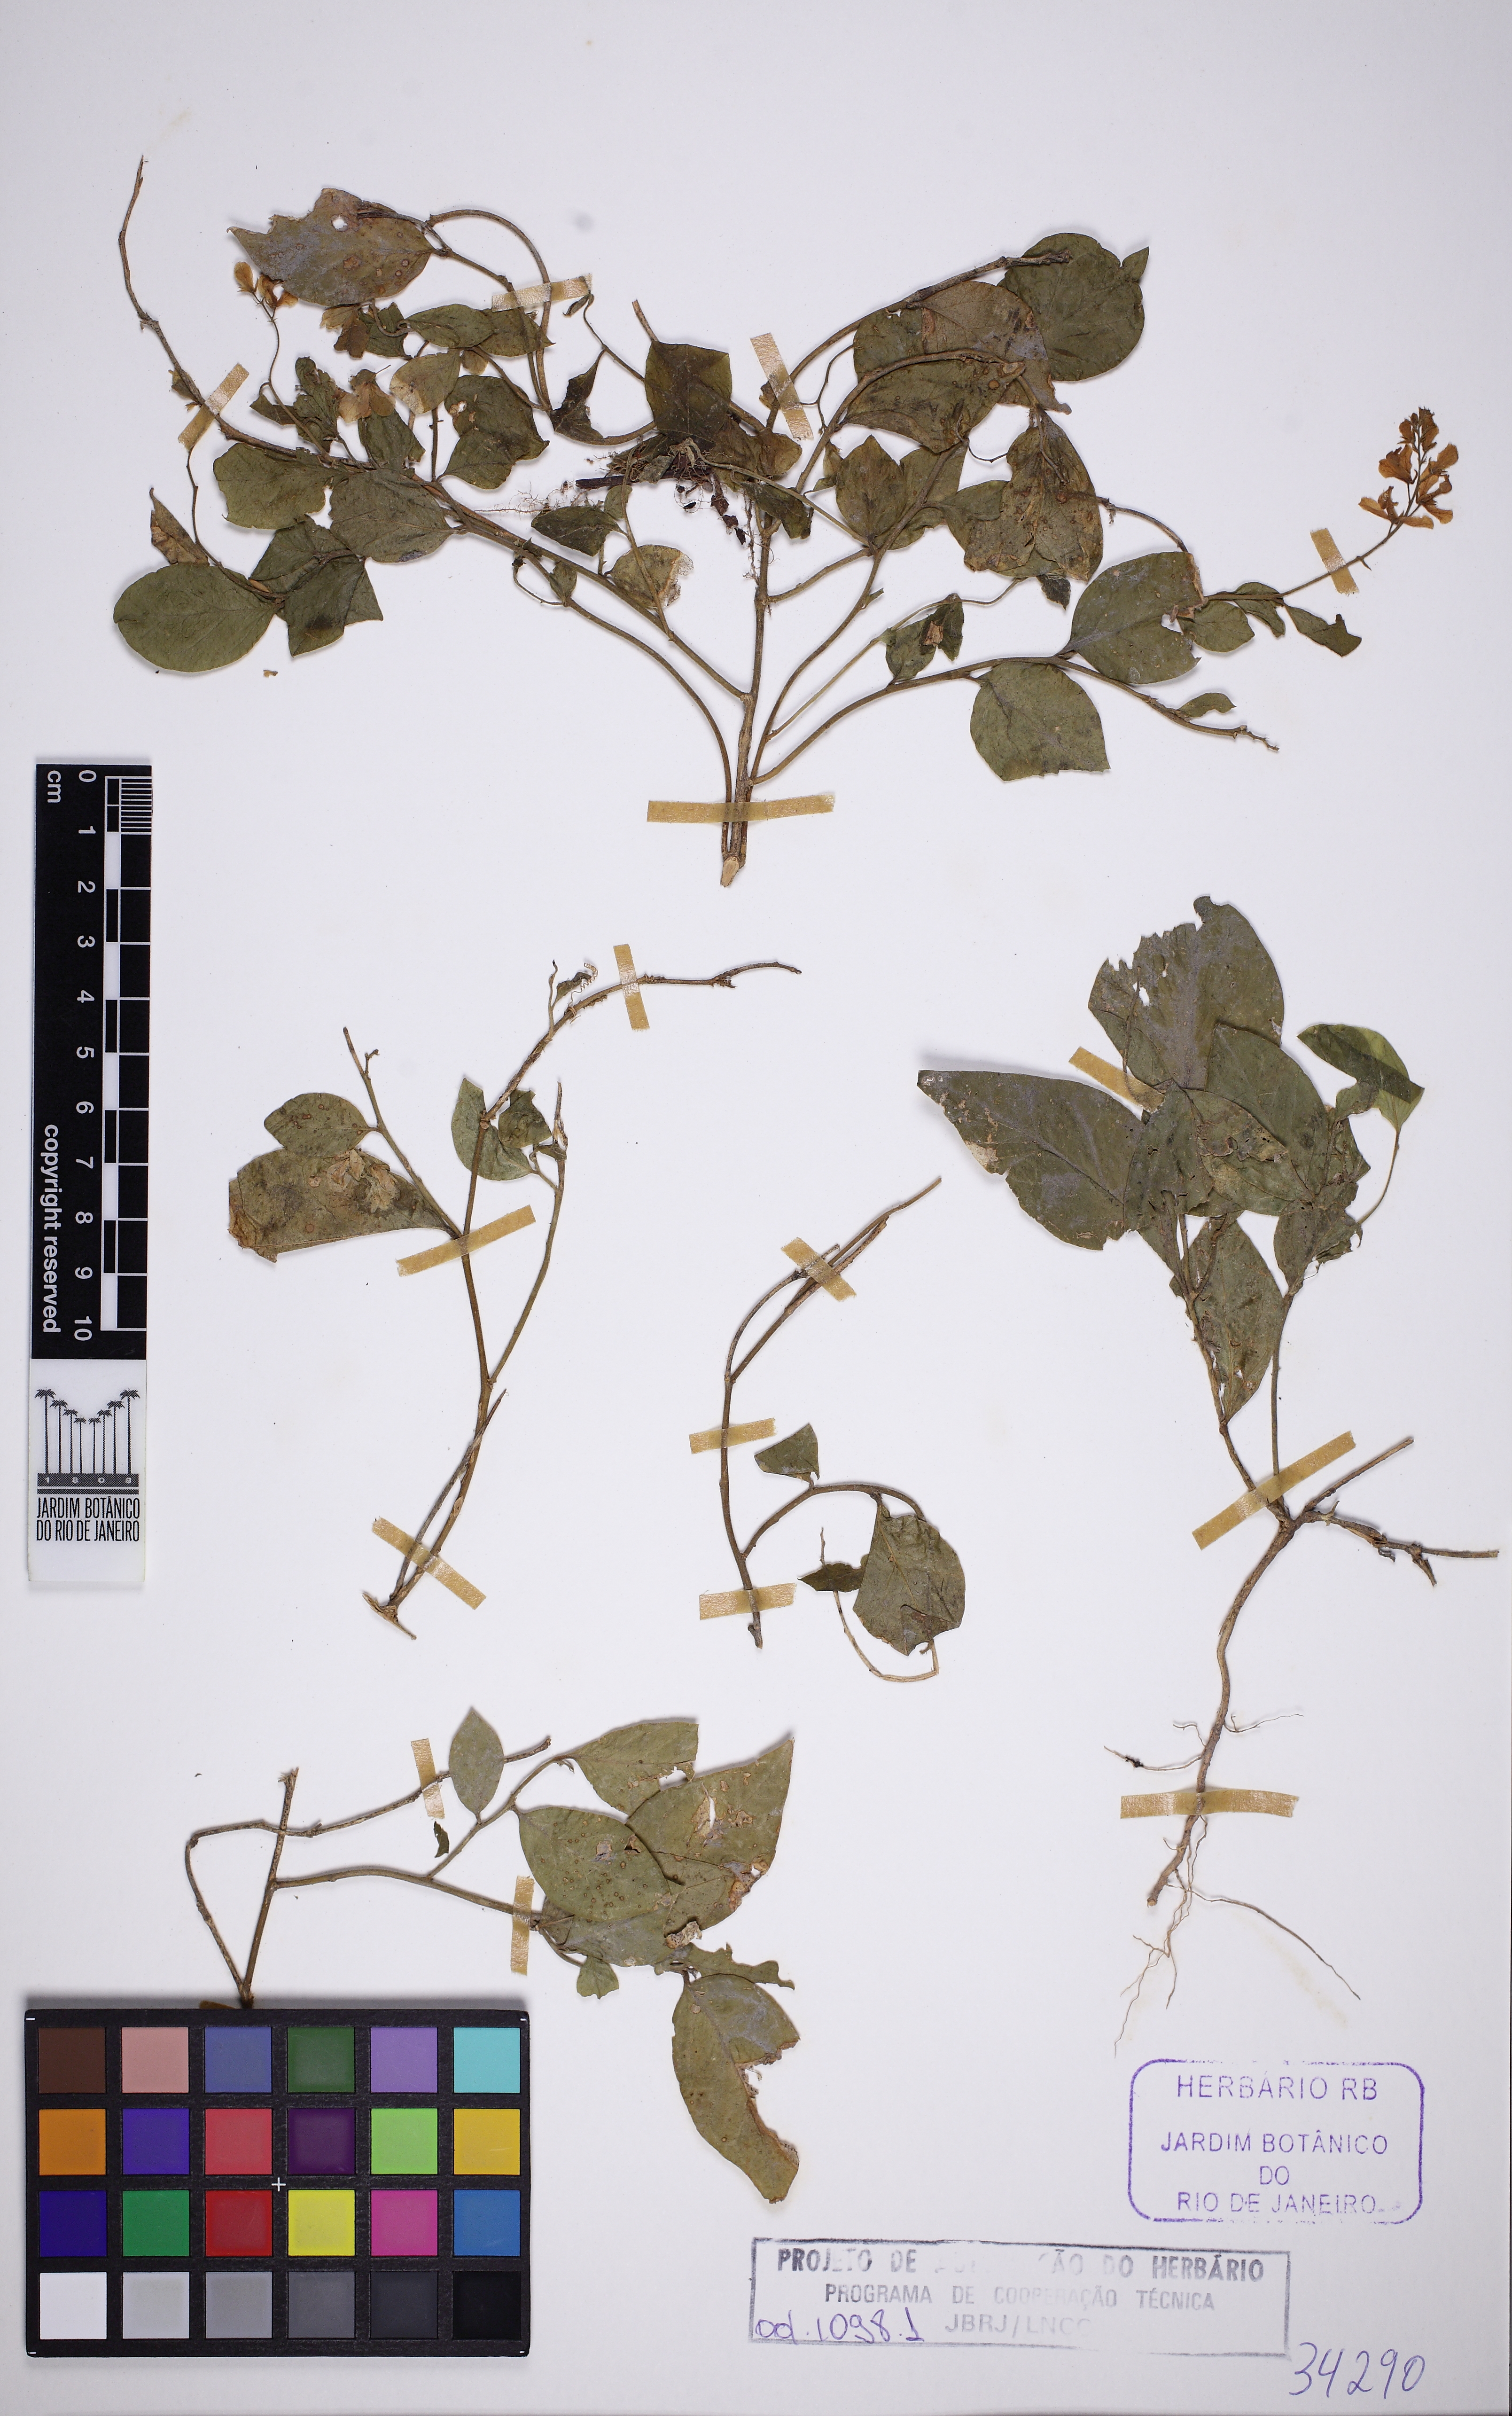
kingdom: Plantae
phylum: Tracheophyta
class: Magnoliopsida
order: Fabales
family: Polygalaceae
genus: Gymnospora
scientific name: Gymnospora violoides
